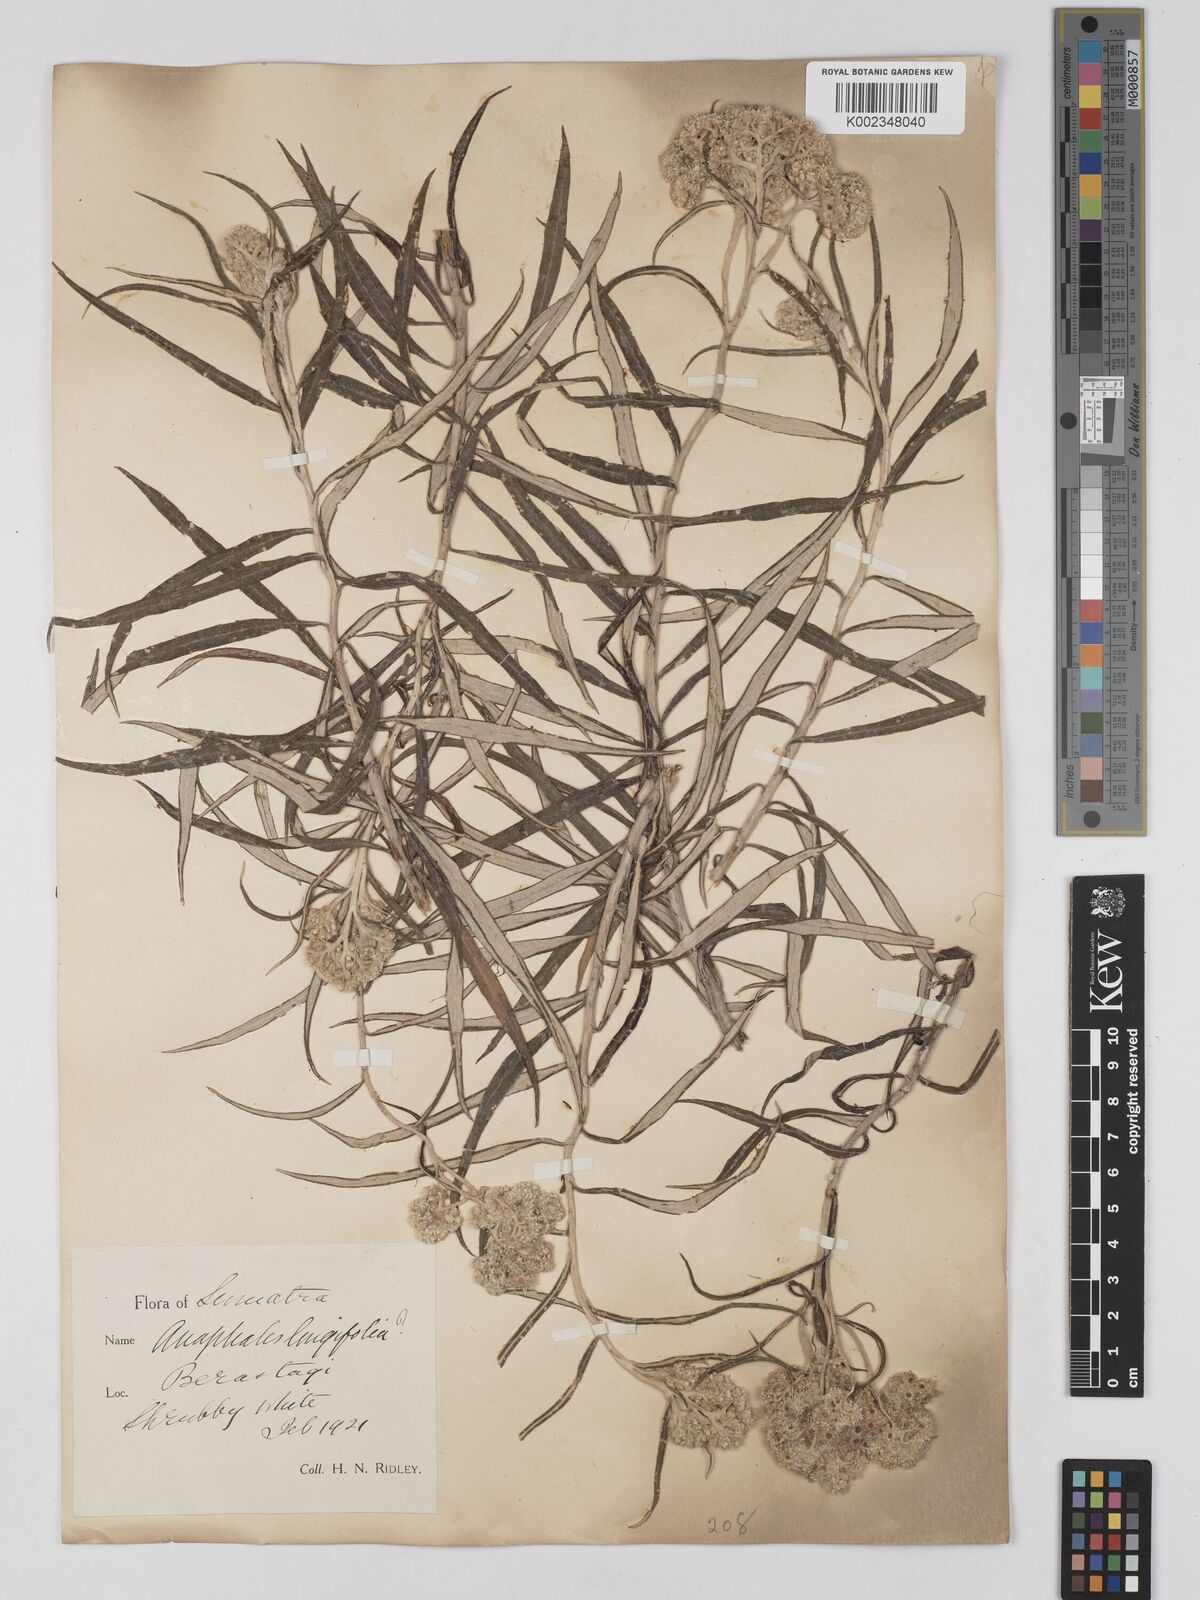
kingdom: Plantae
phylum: Tracheophyta
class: Magnoliopsida
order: Asterales
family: Asteraceae
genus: Anaphalis
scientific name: Anaphalis longifolia
